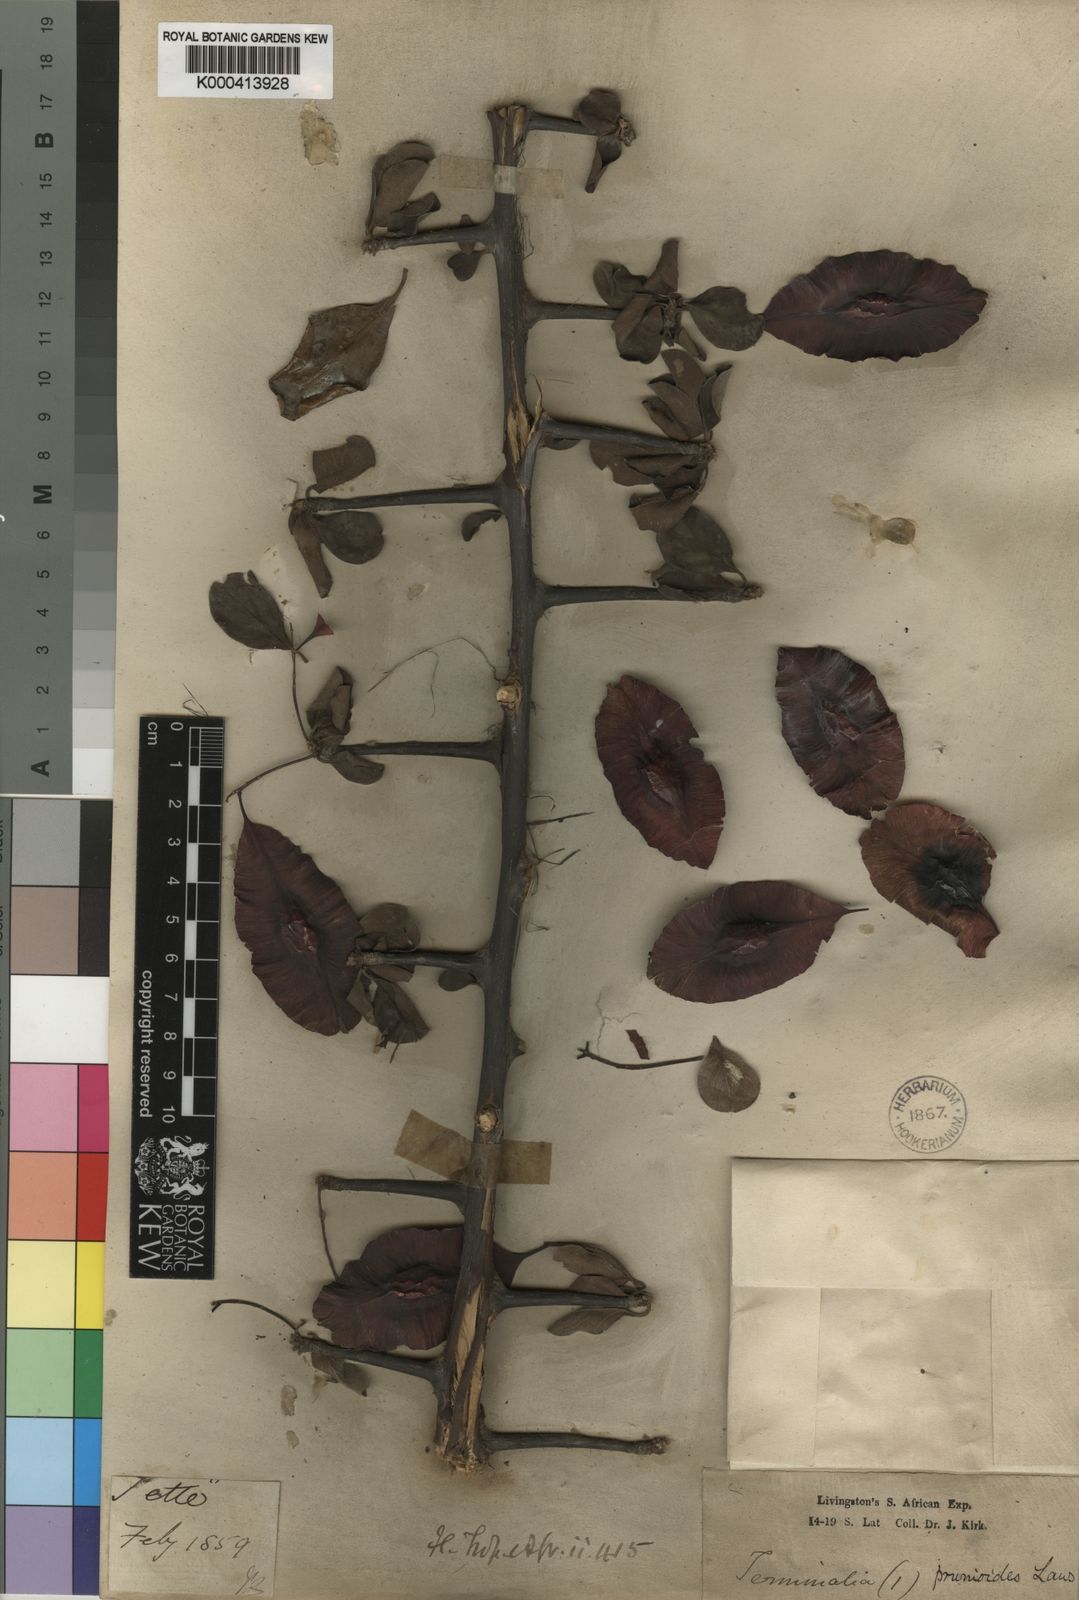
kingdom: Plantae
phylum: Tracheophyta
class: Magnoliopsida
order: Myrtales
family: Combretaceae
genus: Terminalia
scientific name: Terminalia prunioides
